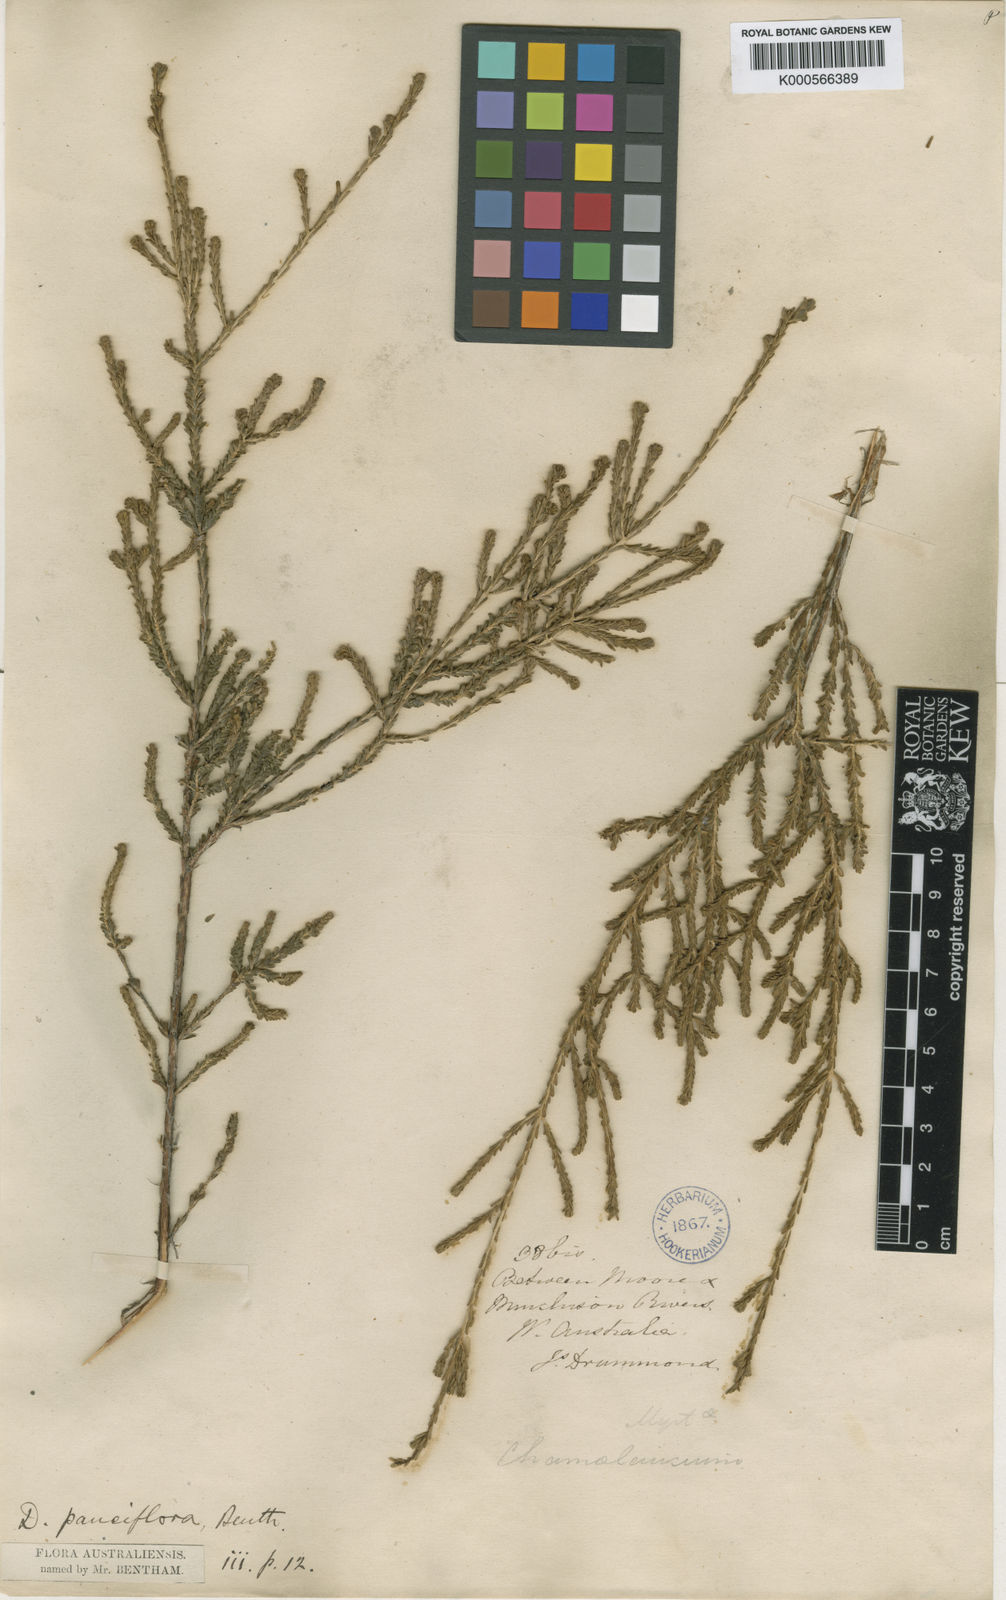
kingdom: Plantae
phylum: Tracheophyta
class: Magnoliopsida
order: Myrtales
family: Myrtaceae
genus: Darwinia
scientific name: Darwinia pauciflora
